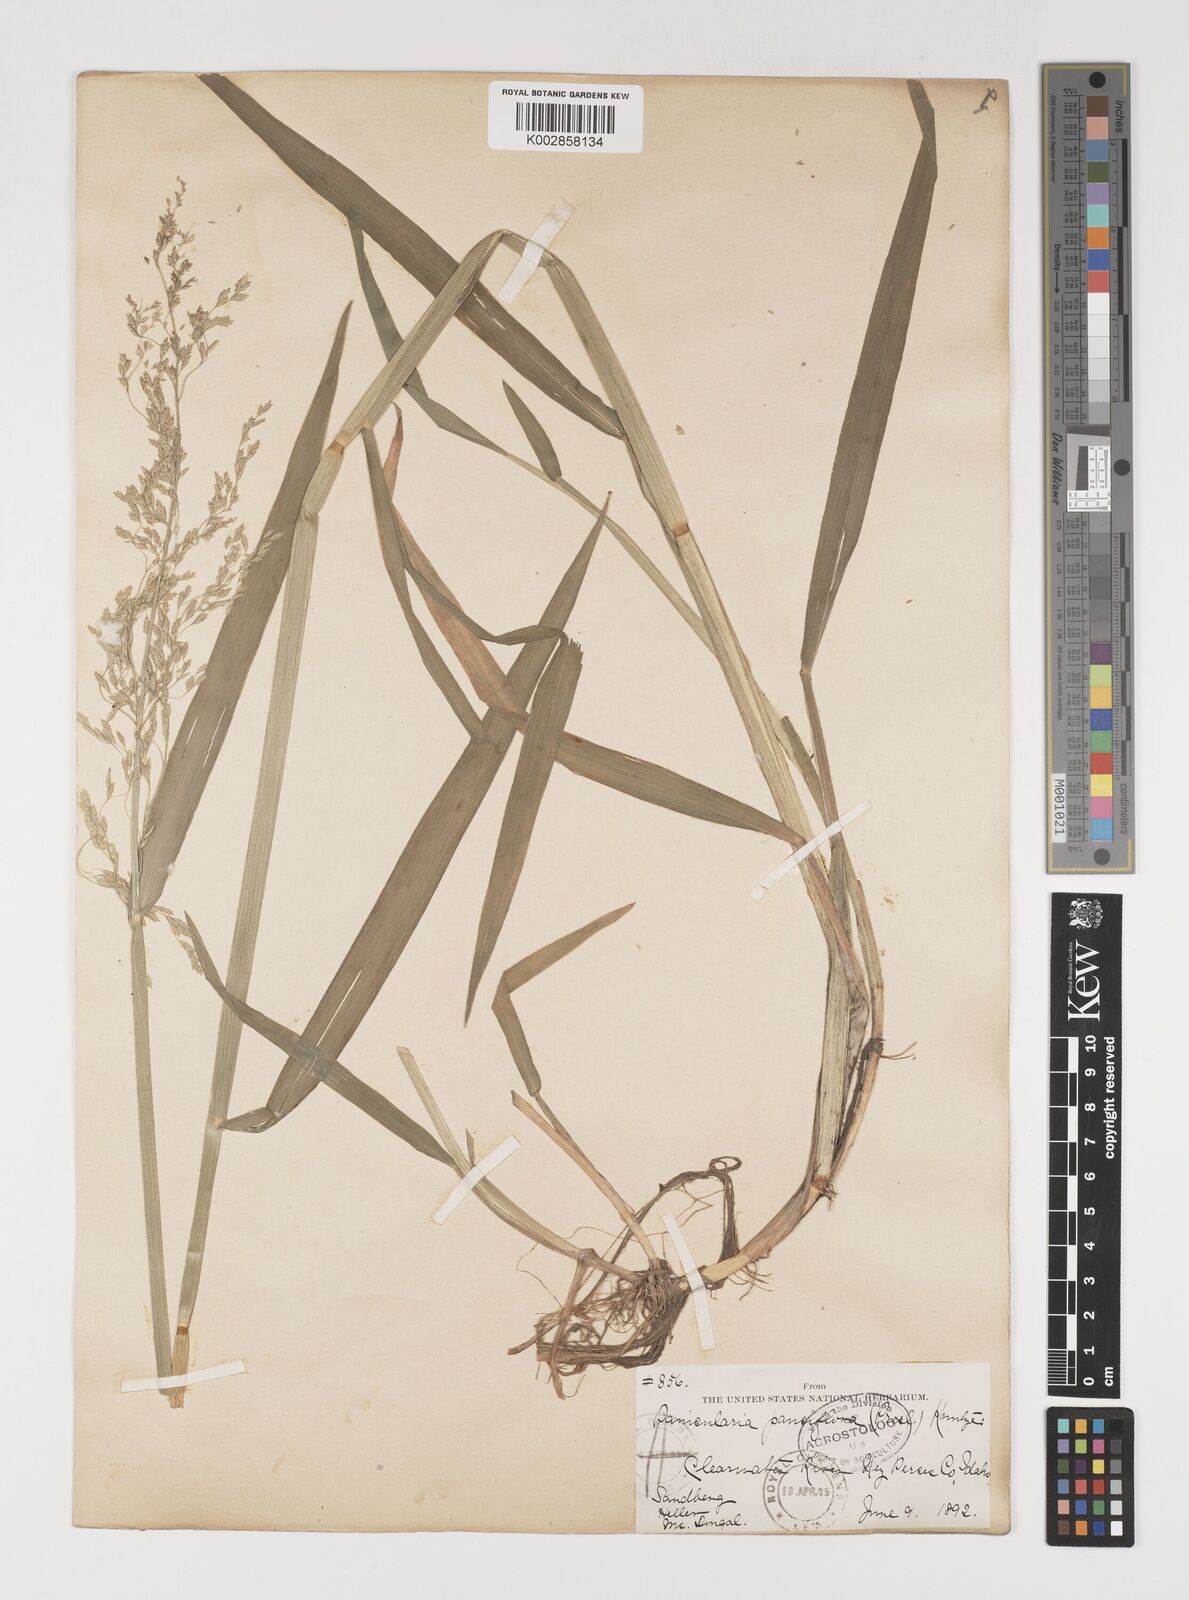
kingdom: Plantae
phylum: Tracheophyta
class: Liliopsida
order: Poales
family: Poaceae
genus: Torreyochloa
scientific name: Torreyochloa pallida
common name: Pale false mannagrass
